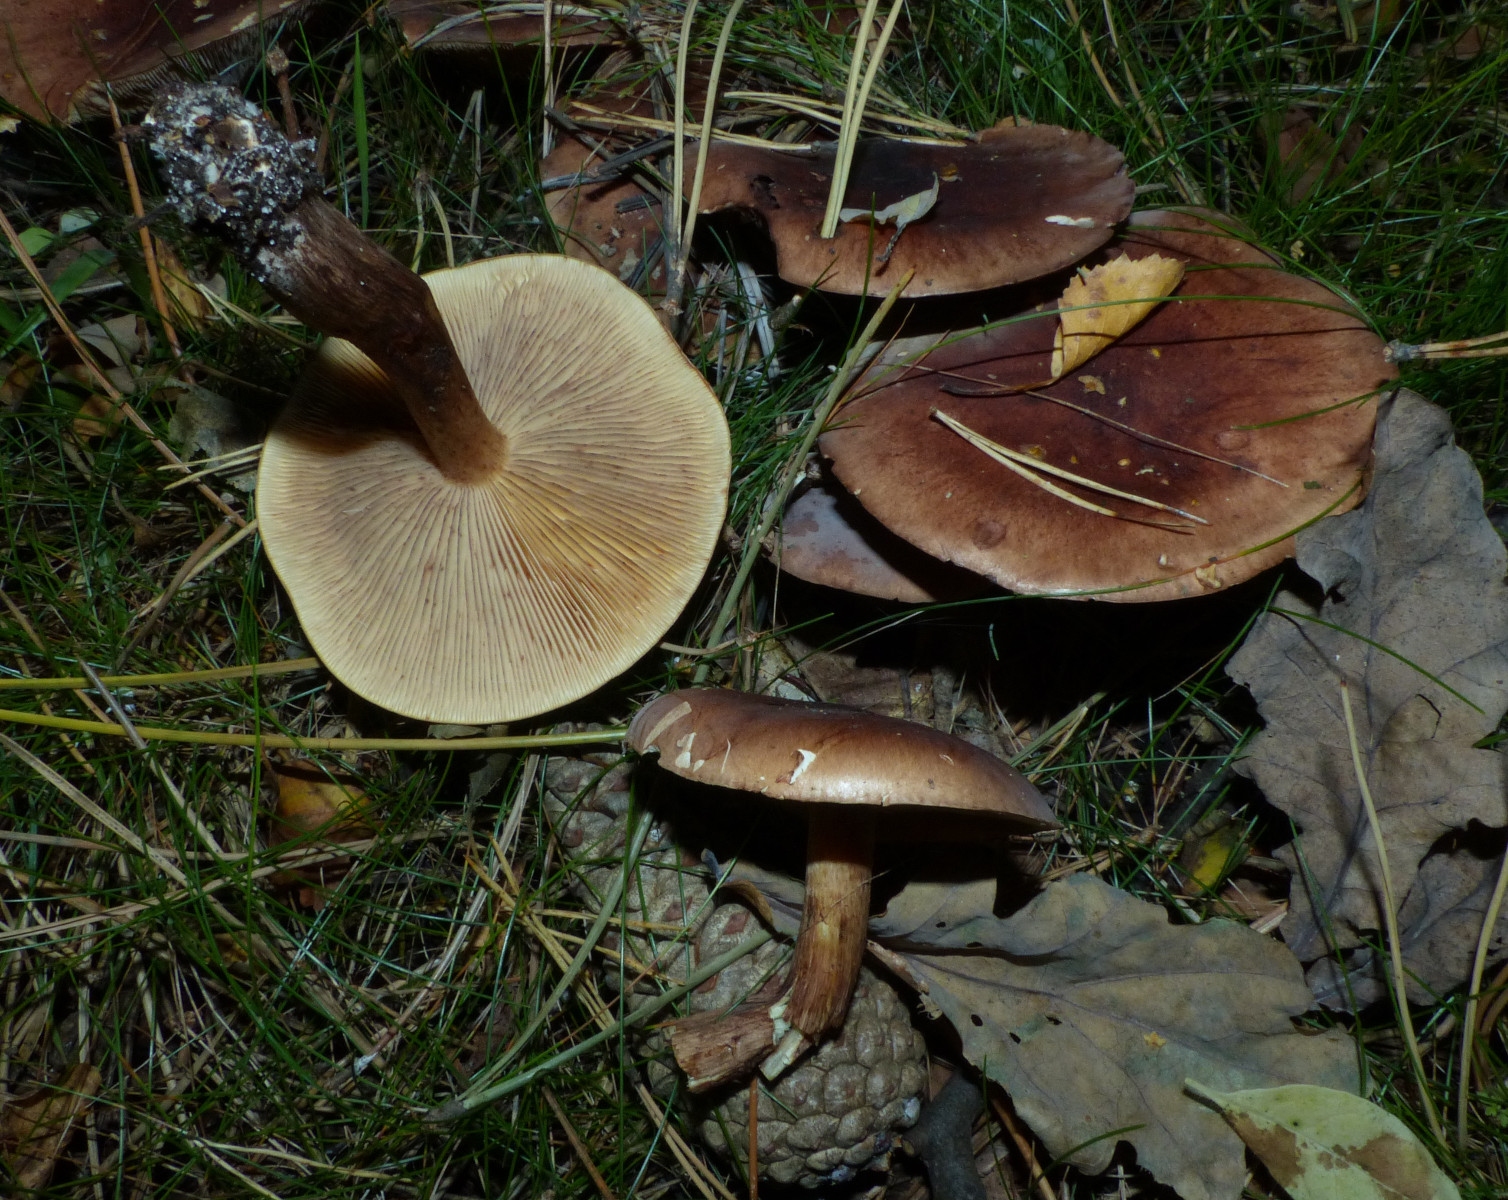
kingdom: Fungi
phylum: Basidiomycota
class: Agaricomycetes
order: Agaricales
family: Tricholomataceae
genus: Tricholoma
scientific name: Tricholoma fulvum
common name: birke-ridderhat
